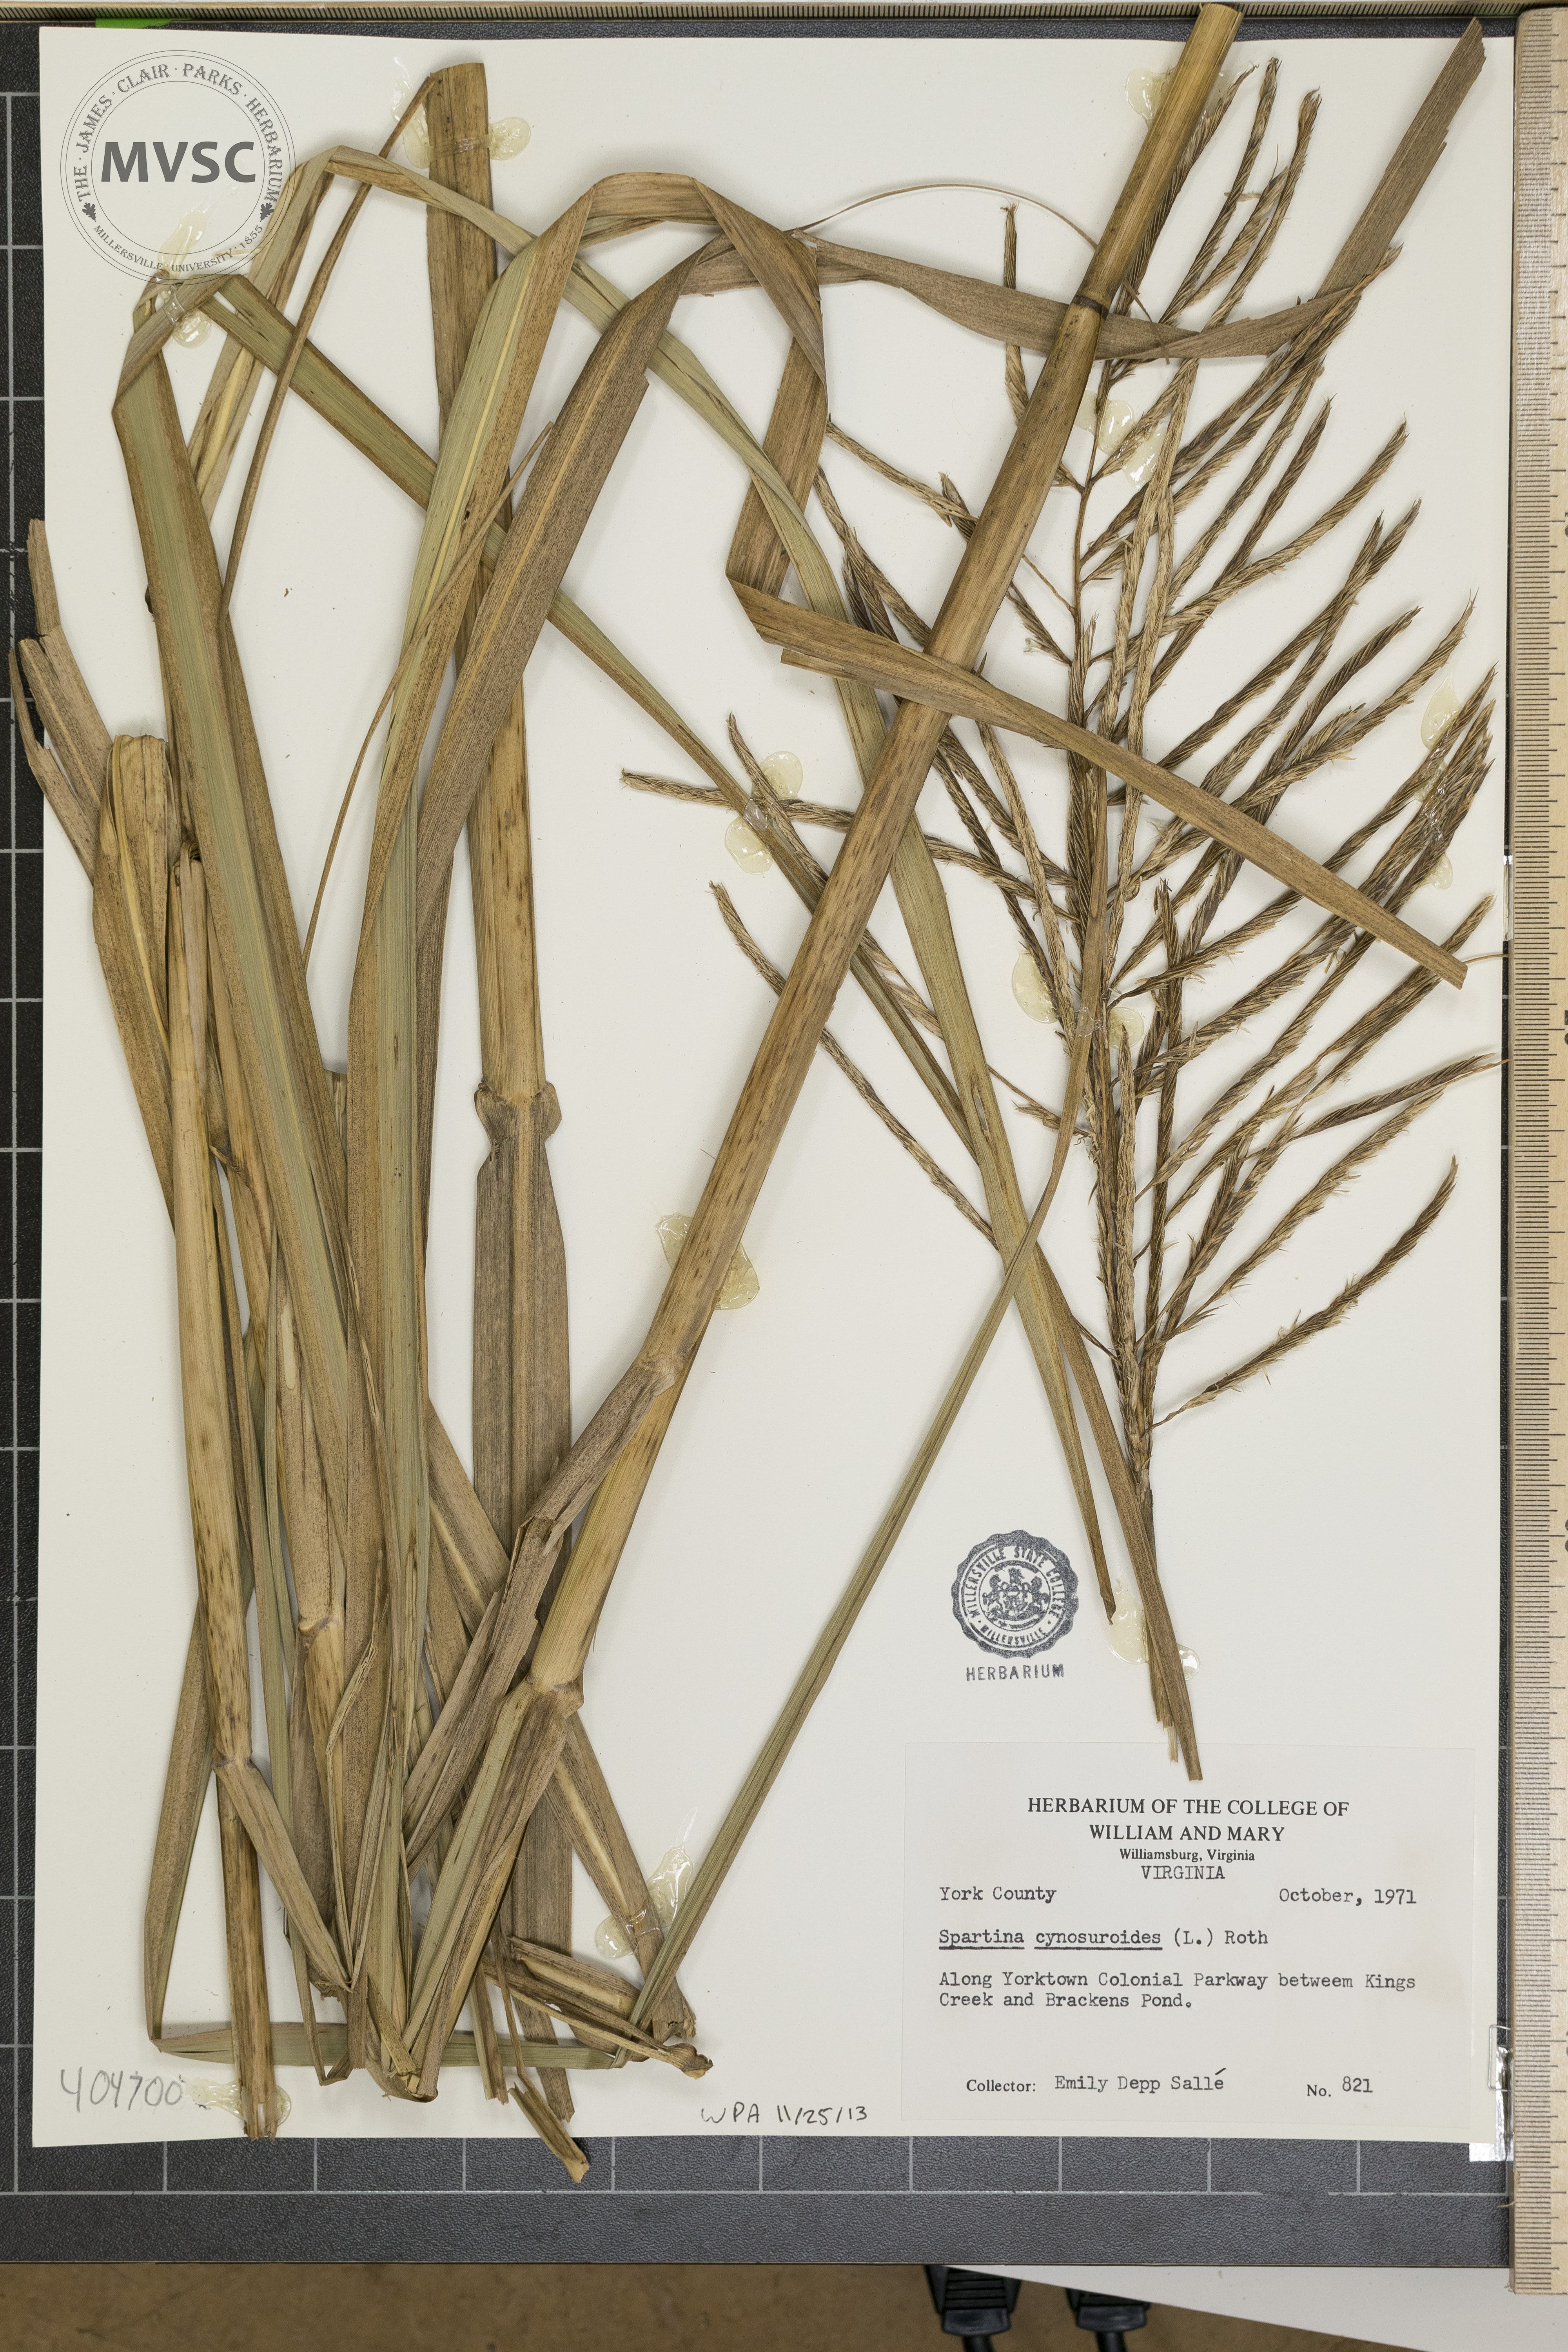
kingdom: Plantae
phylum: Tracheophyta
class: Liliopsida
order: Poales
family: Poaceae
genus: Sporobolus
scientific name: Sporobolus cynosuroides
